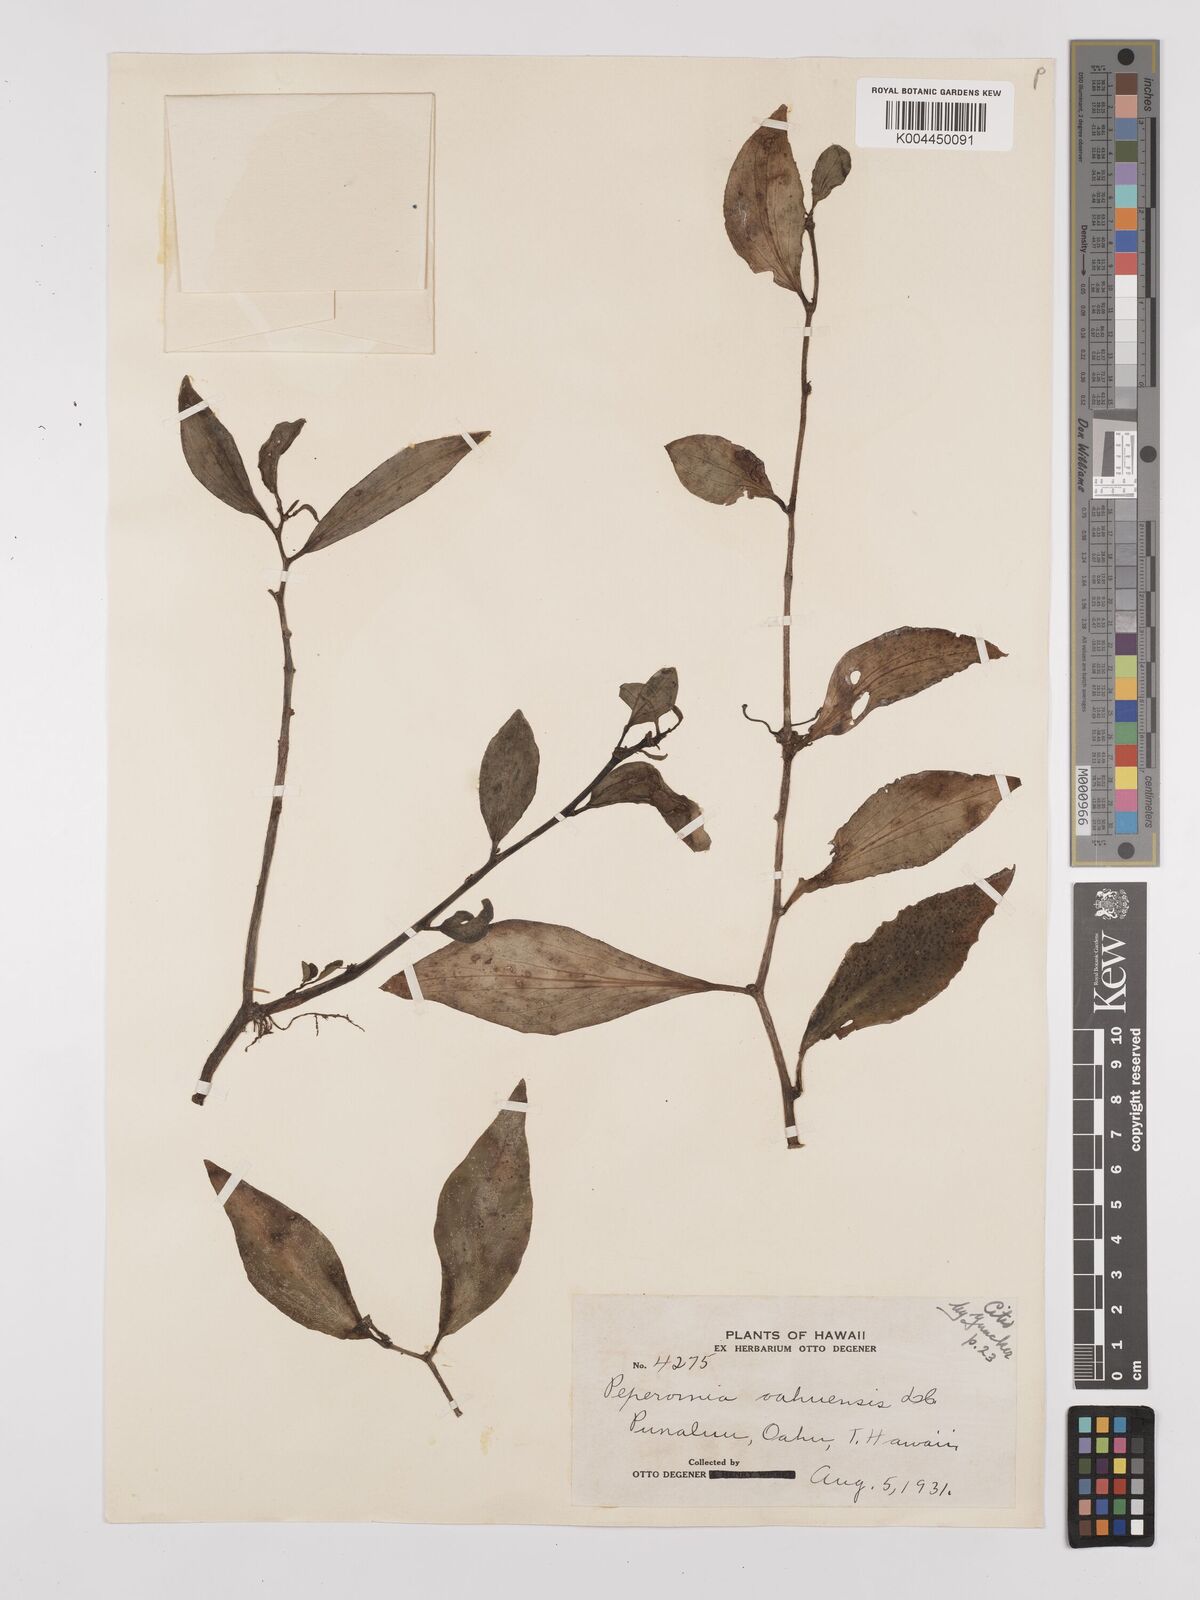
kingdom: Plantae
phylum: Tracheophyta
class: Magnoliopsida
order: Piperales
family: Piperaceae
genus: Peperomia
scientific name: Peperomia oahuensis
